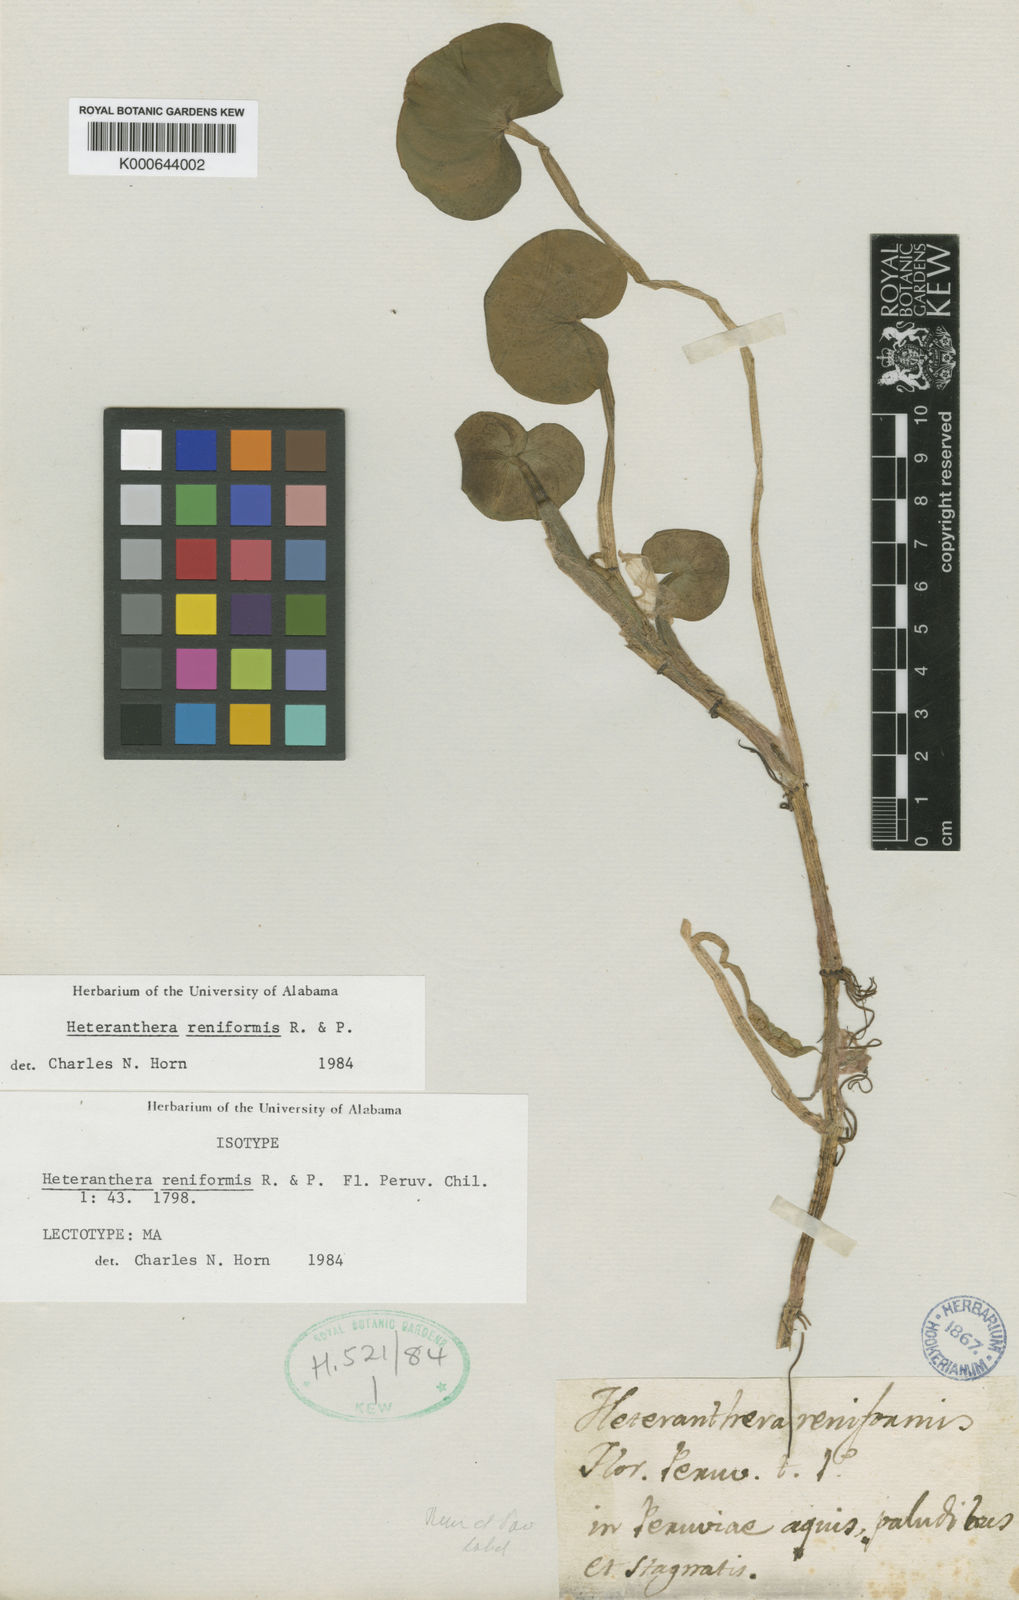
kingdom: Plantae
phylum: Tracheophyta
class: Liliopsida
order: Commelinales
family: Pontederiaceae
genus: Heteranthera
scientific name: Heteranthera reniformis
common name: Kidneyleaf mudplantain
